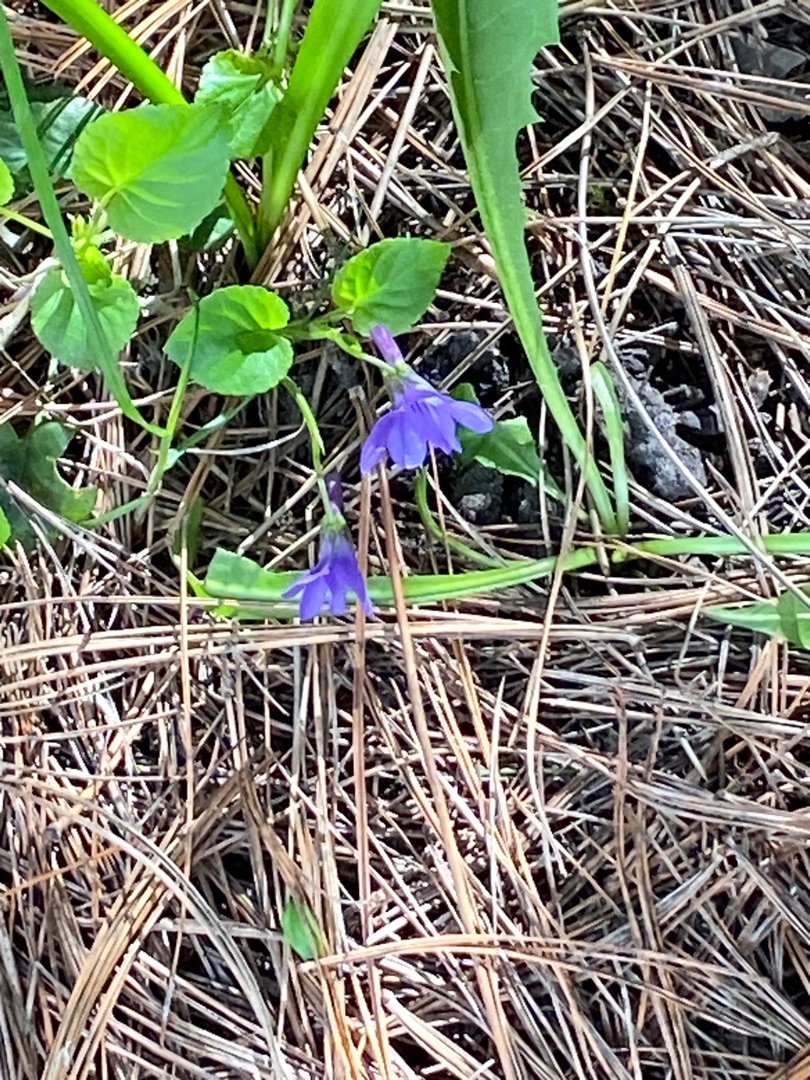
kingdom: Plantae
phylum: Tracheophyta
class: Magnoliopsida
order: Malpighiales
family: Violaceae
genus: Viola
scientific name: Viola reichenbachiana
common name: Skov-viol
